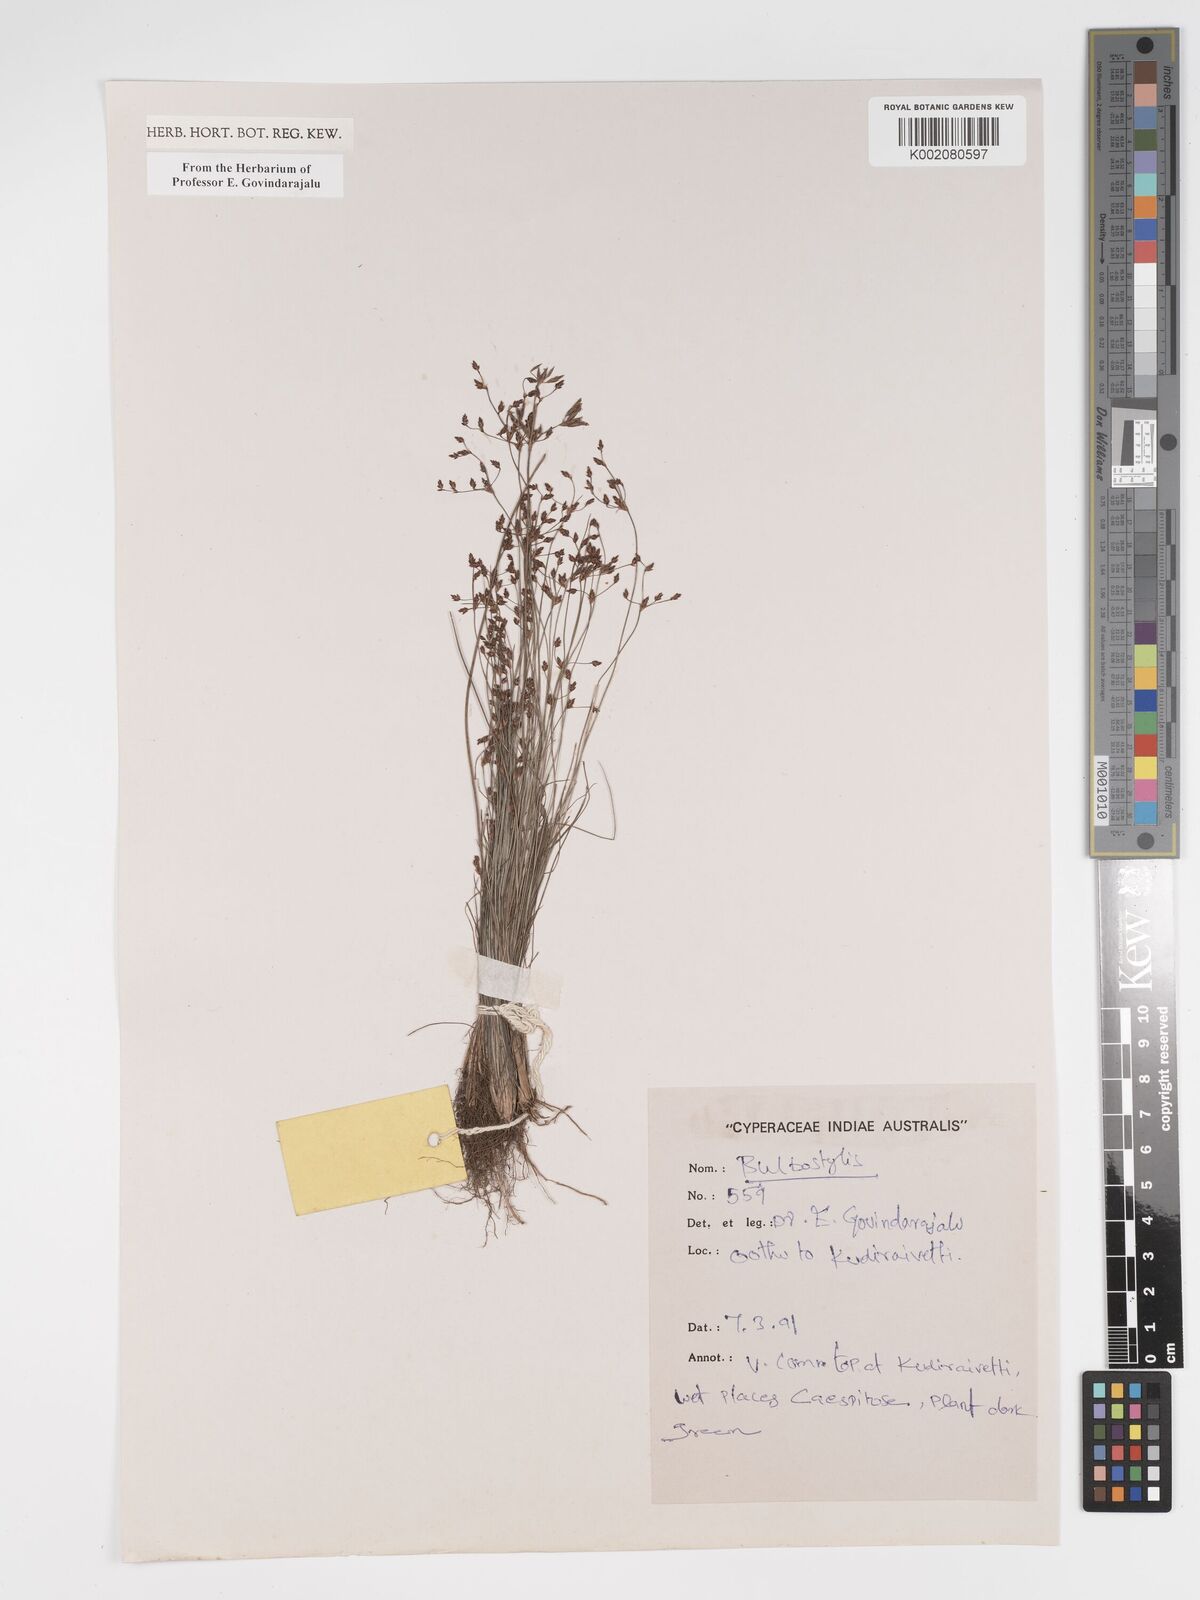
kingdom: Plantae
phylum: Tracheophyta
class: Liliopsida
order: Poales
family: Cyperaceae
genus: Bulbostylis
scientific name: Bulbostylis
